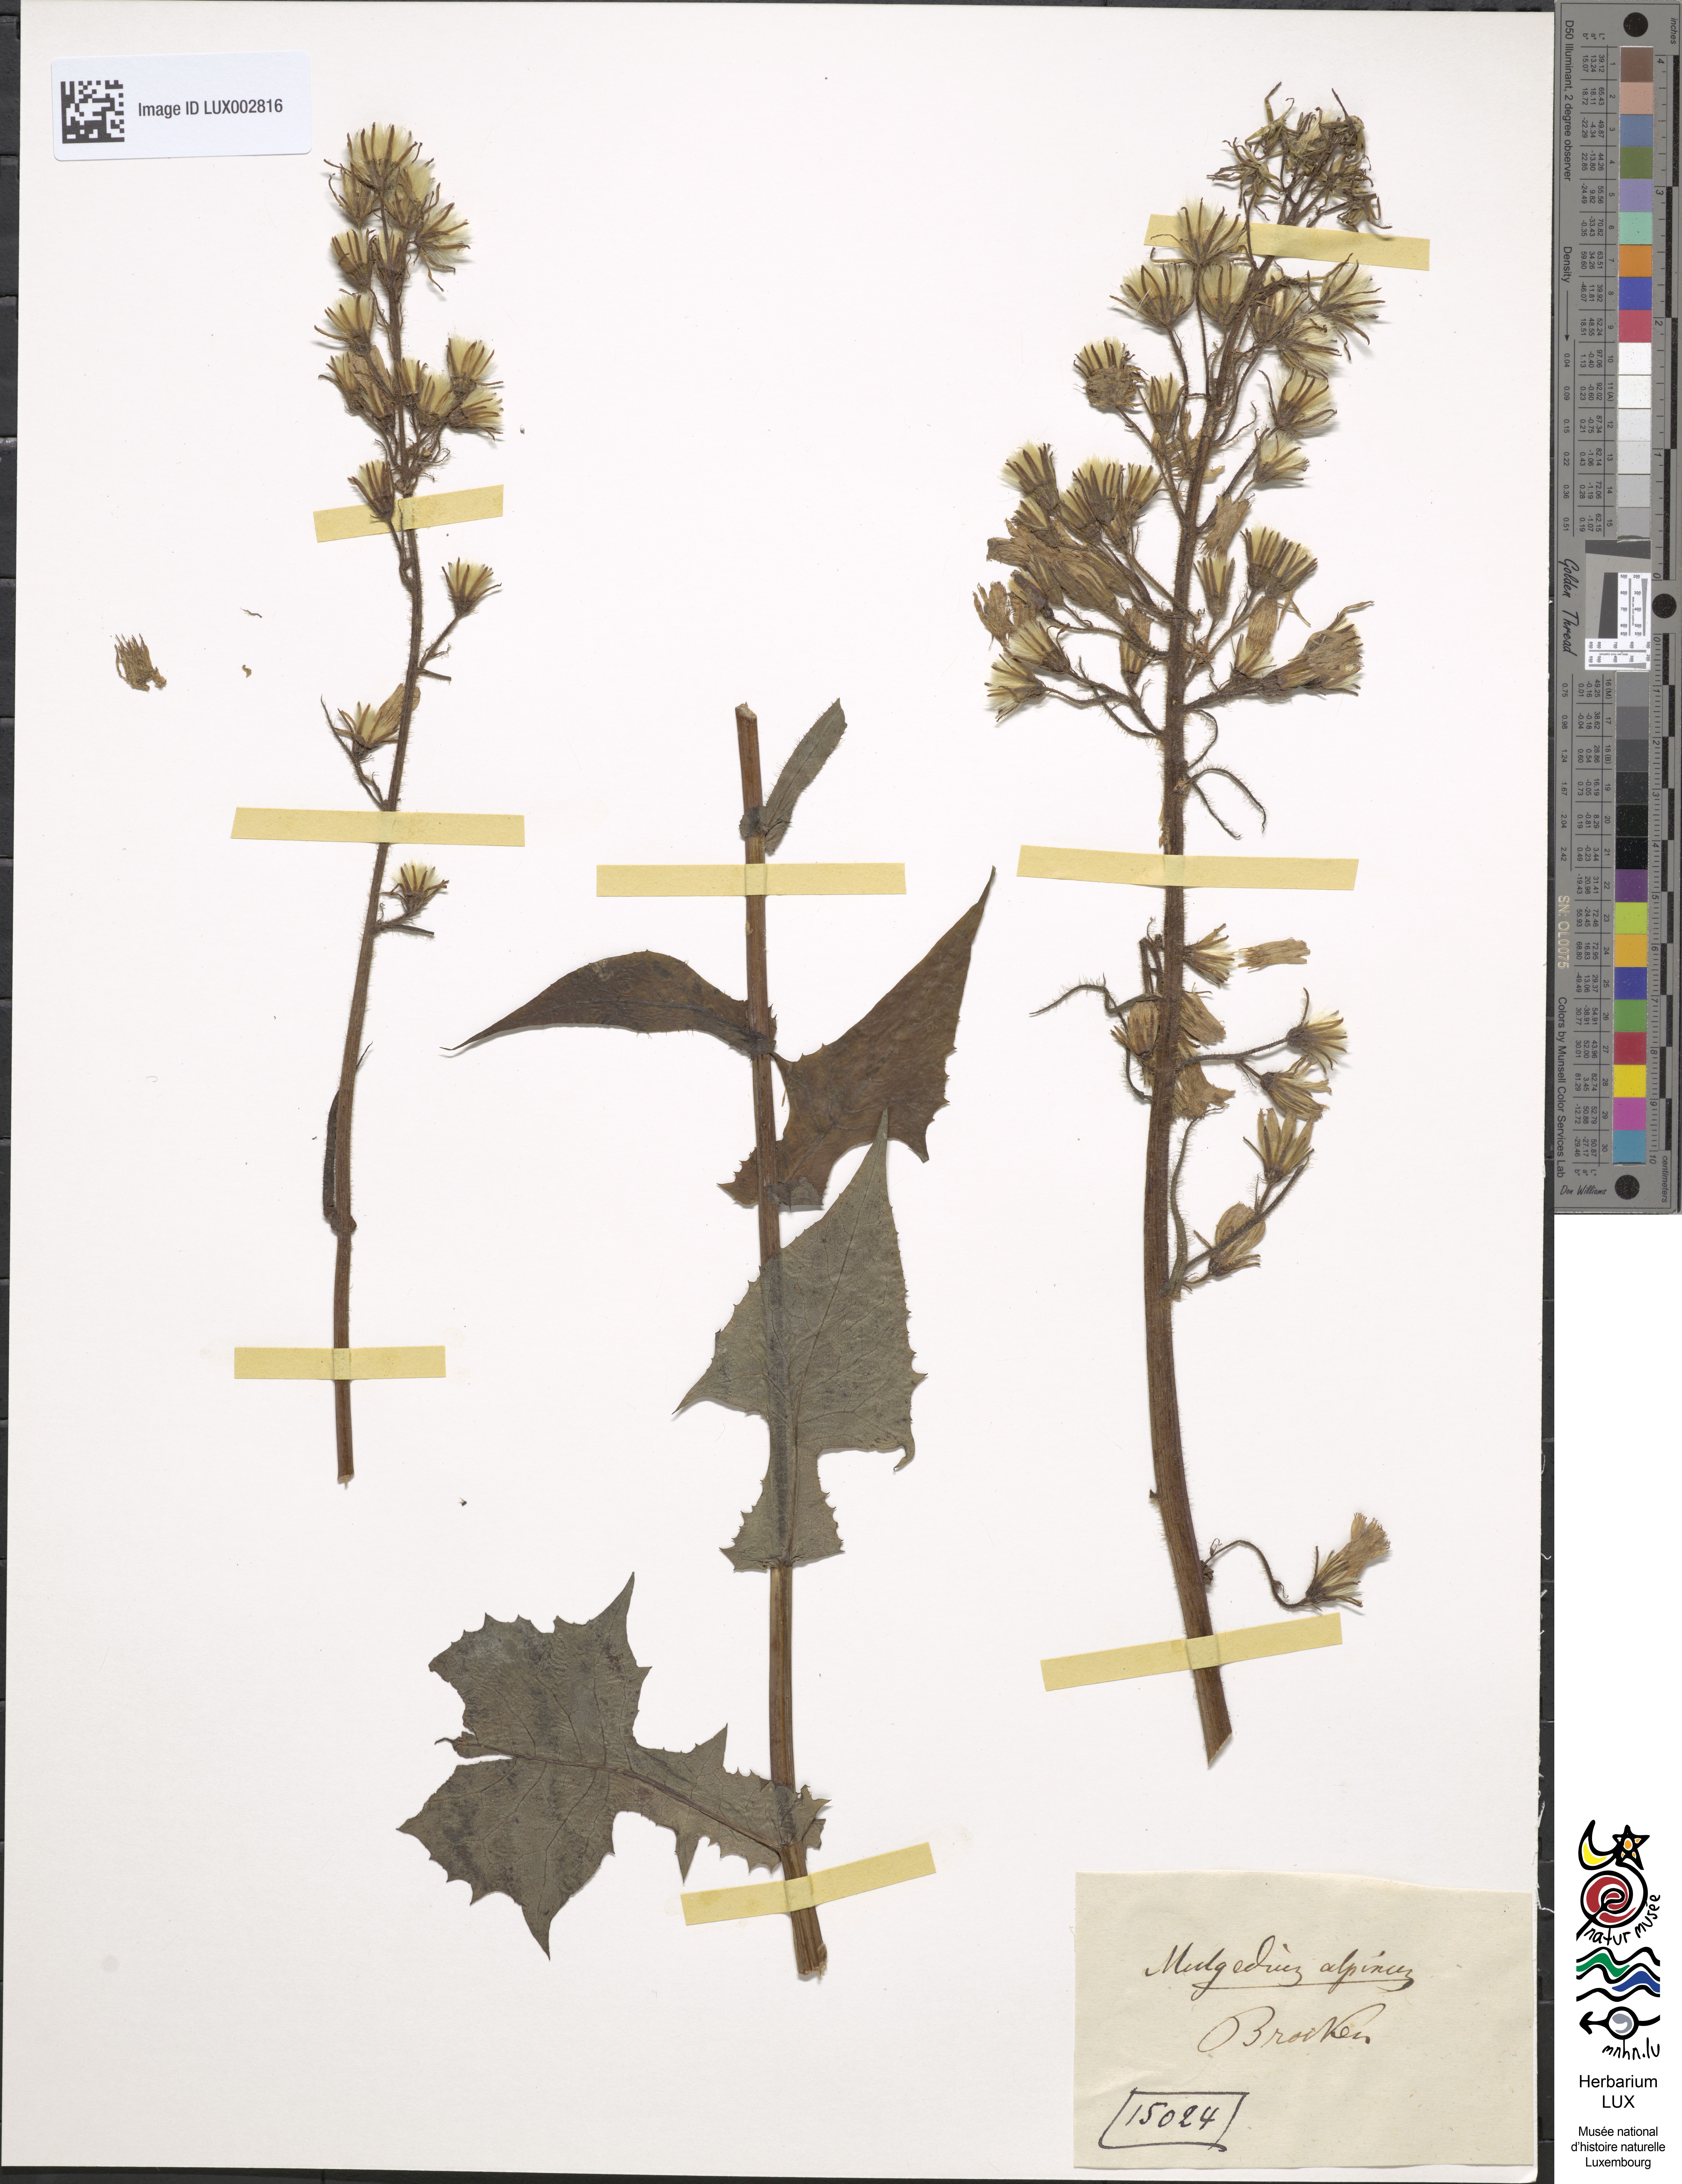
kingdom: Plantae
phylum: Tracheophyta
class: Magnoliopsida
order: Asterales
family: Asteraceae
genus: Cicerbita
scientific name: Cicerbita alpina
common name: Alpine blue-sow-thistle
